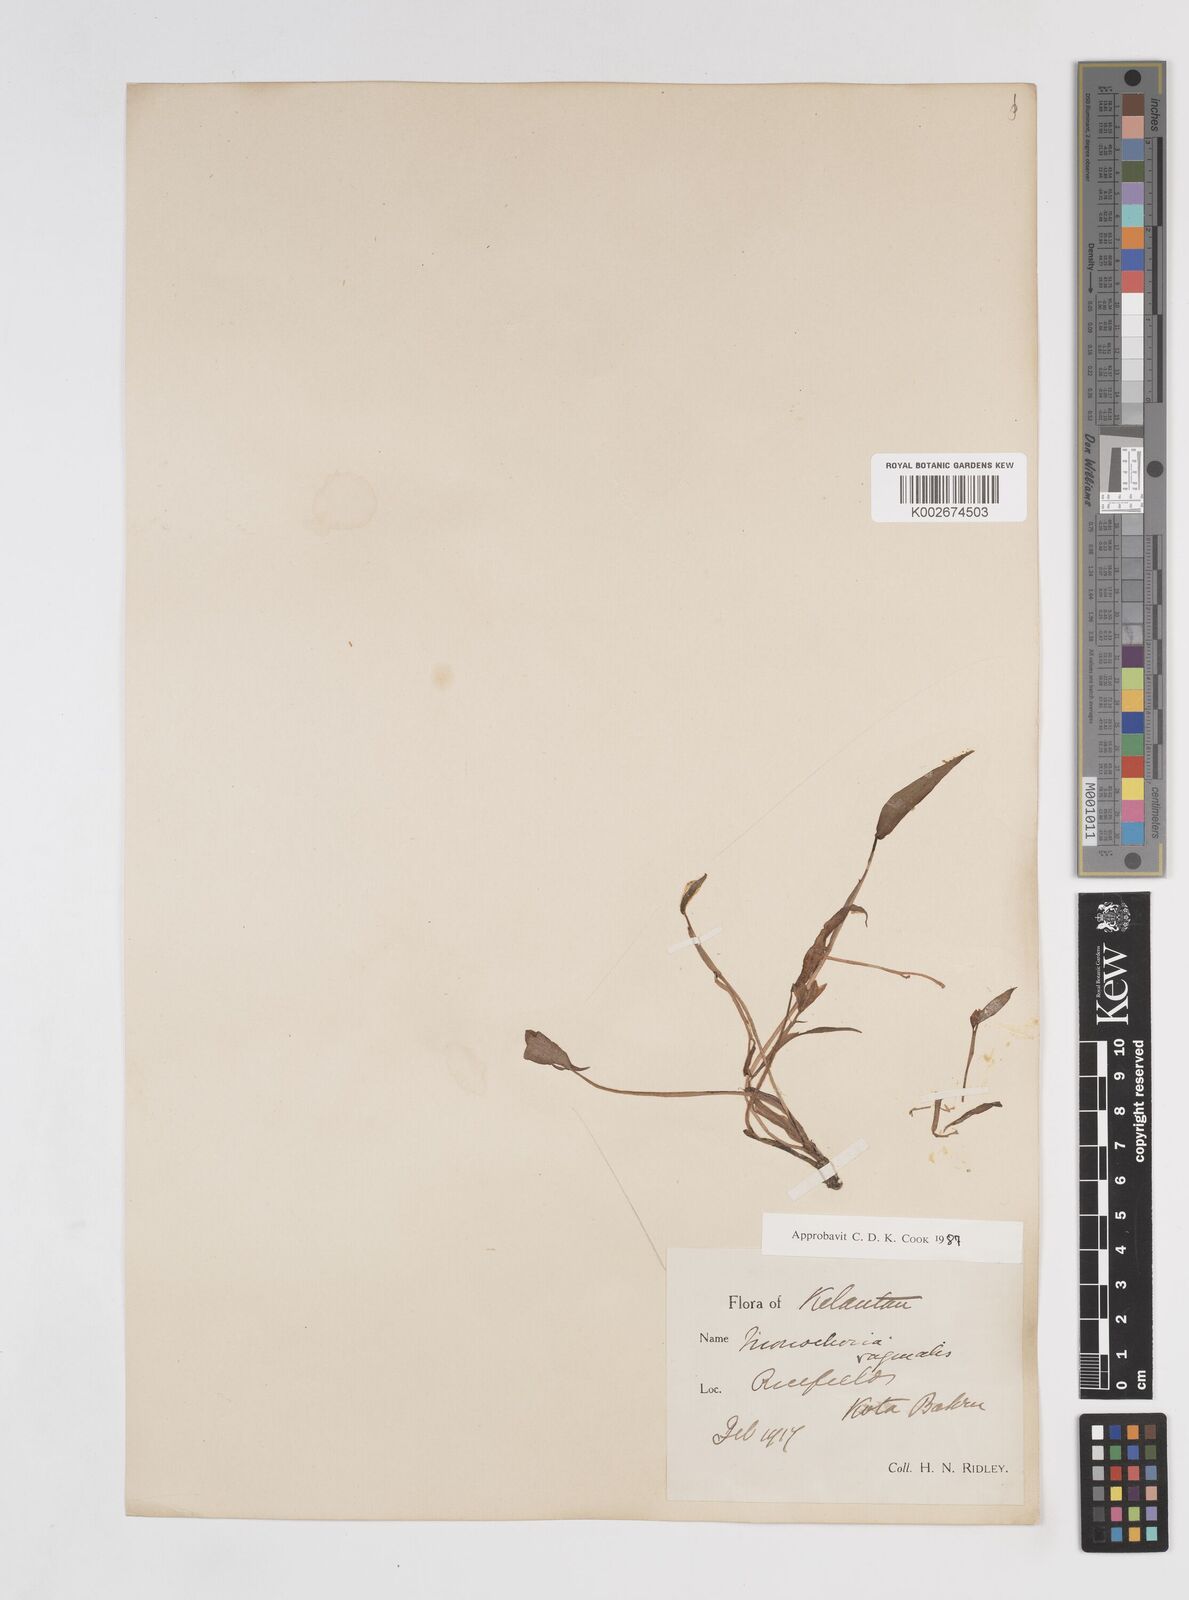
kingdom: Plantae
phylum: Tracheophyta
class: Liliopsida
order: Commelinales
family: Pontederiaceae
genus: Pontederia
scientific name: Pontederia vaginalis
